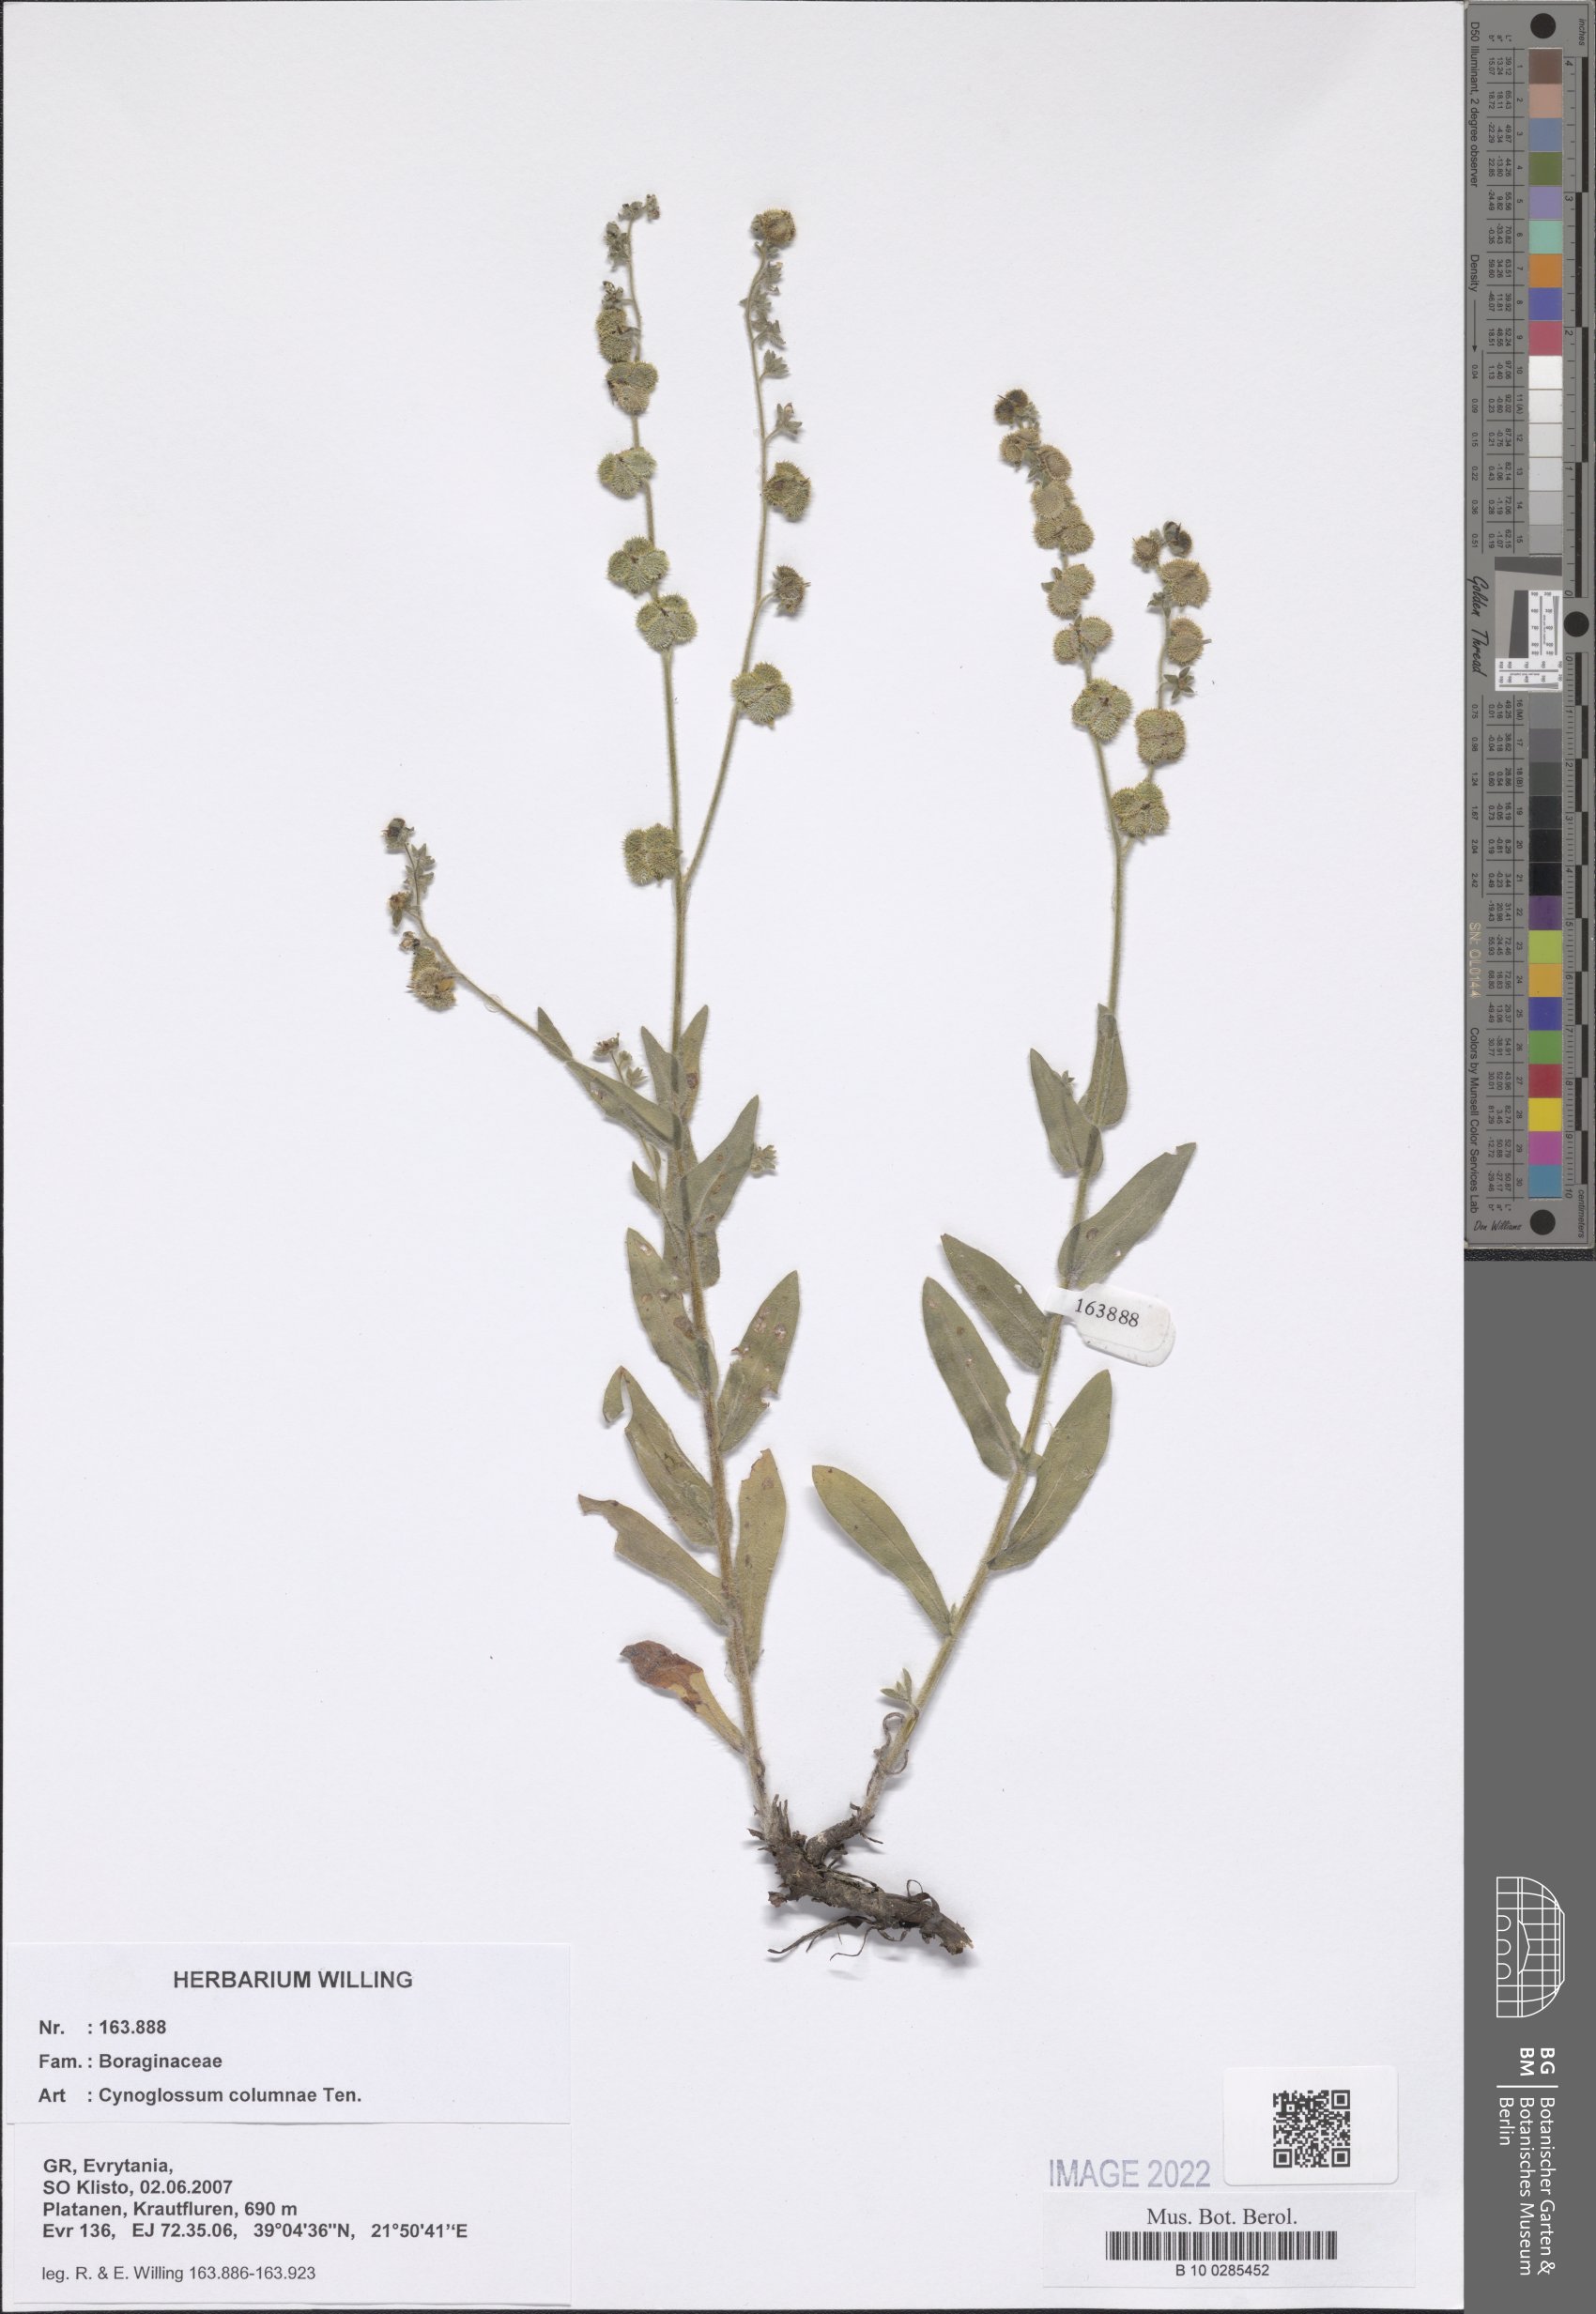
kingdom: Plantae
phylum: Tracheophyta
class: Magnoliopsida
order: Boraginales
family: Boraginaceae
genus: Rindera
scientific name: Rindera columnae
